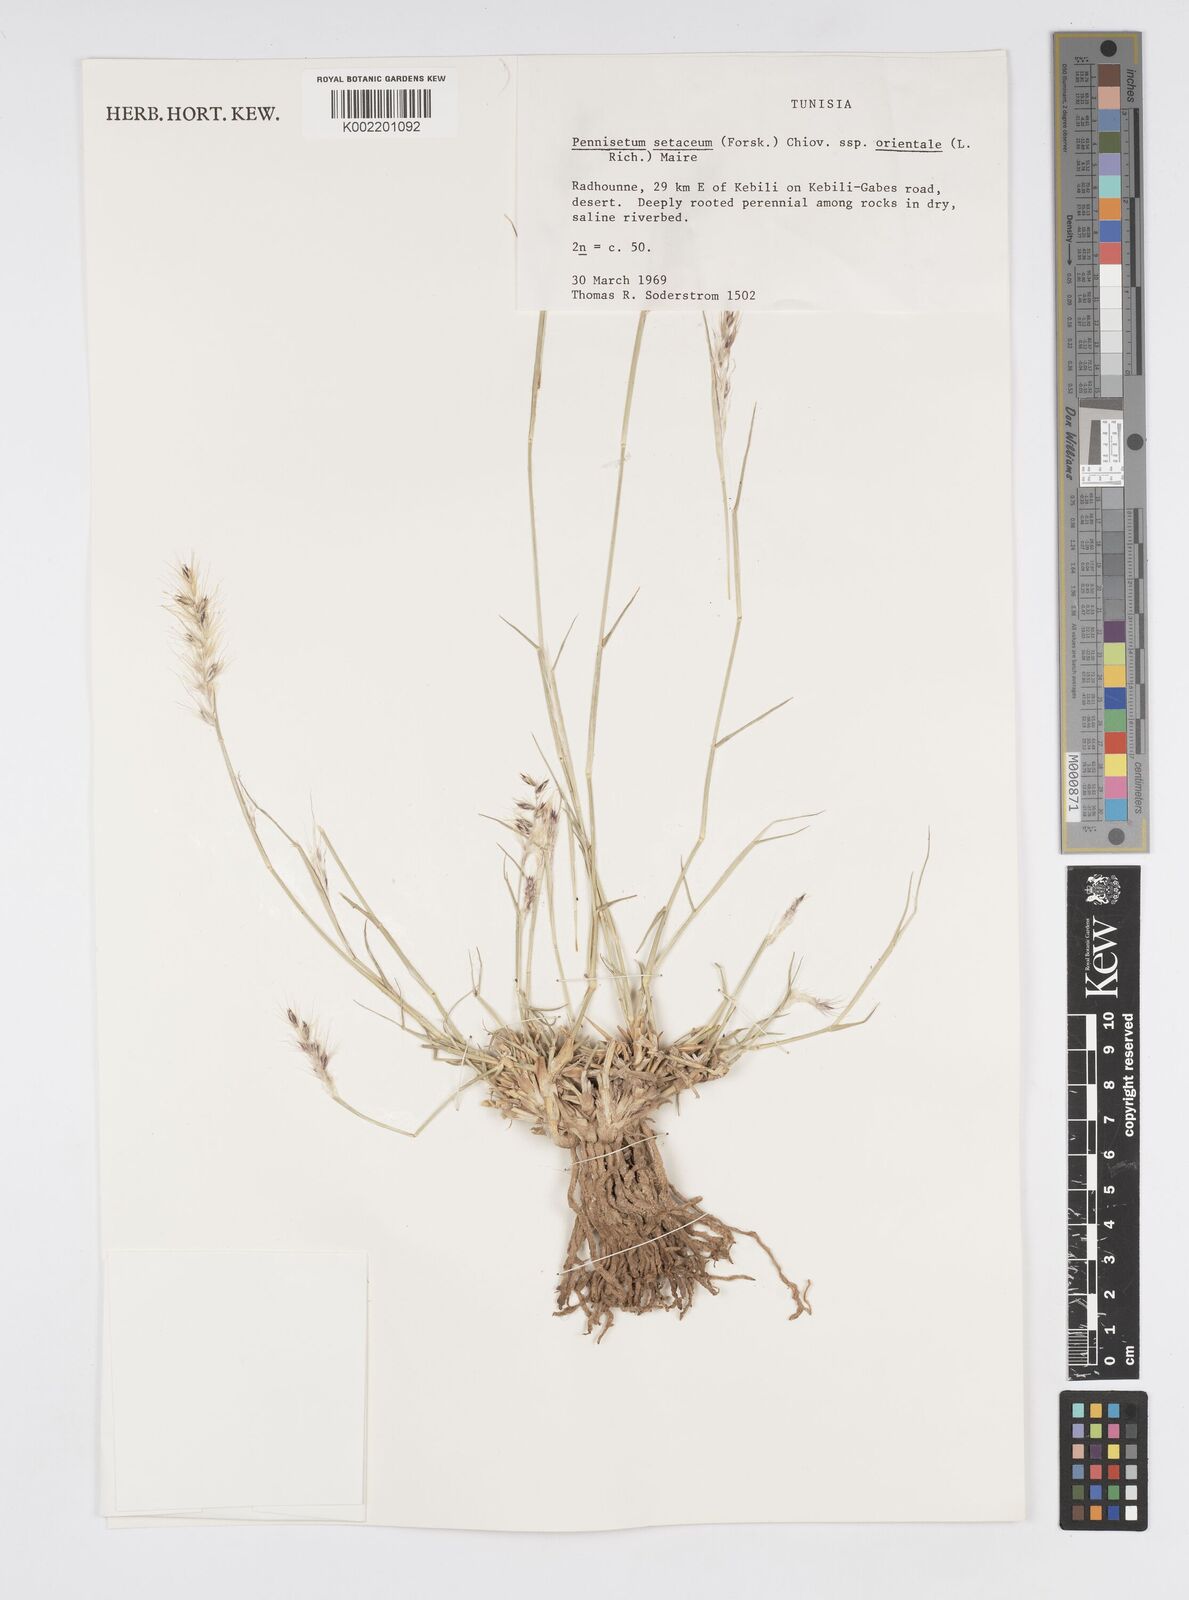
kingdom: Plantae
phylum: Tracheophyta
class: Liliopsida
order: Poales
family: Poaceae
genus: Cenchrus
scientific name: Cenchrus setaceus
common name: Crimson fountaingrass
